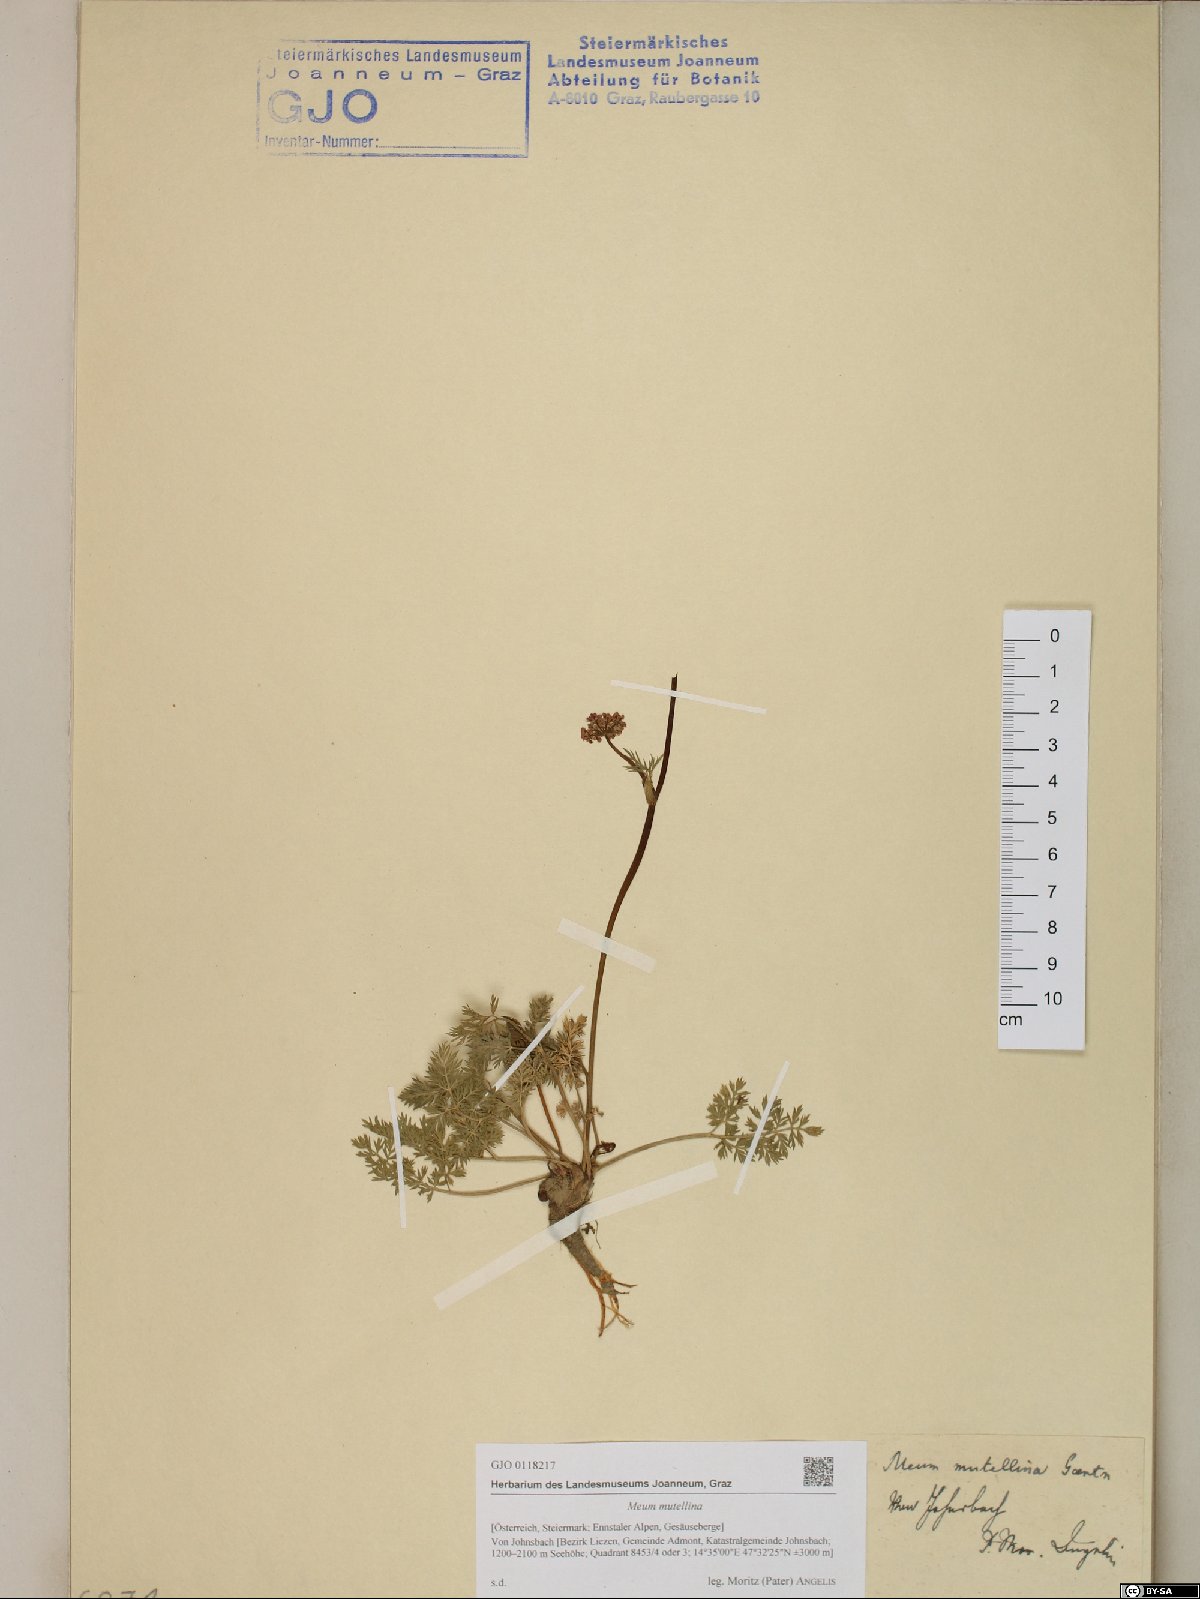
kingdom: Plantae
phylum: Tracheophyta
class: Magnoliopsida
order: Apiales
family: Apiaceae
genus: Mutellina
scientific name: Mutellina adonidifolia
